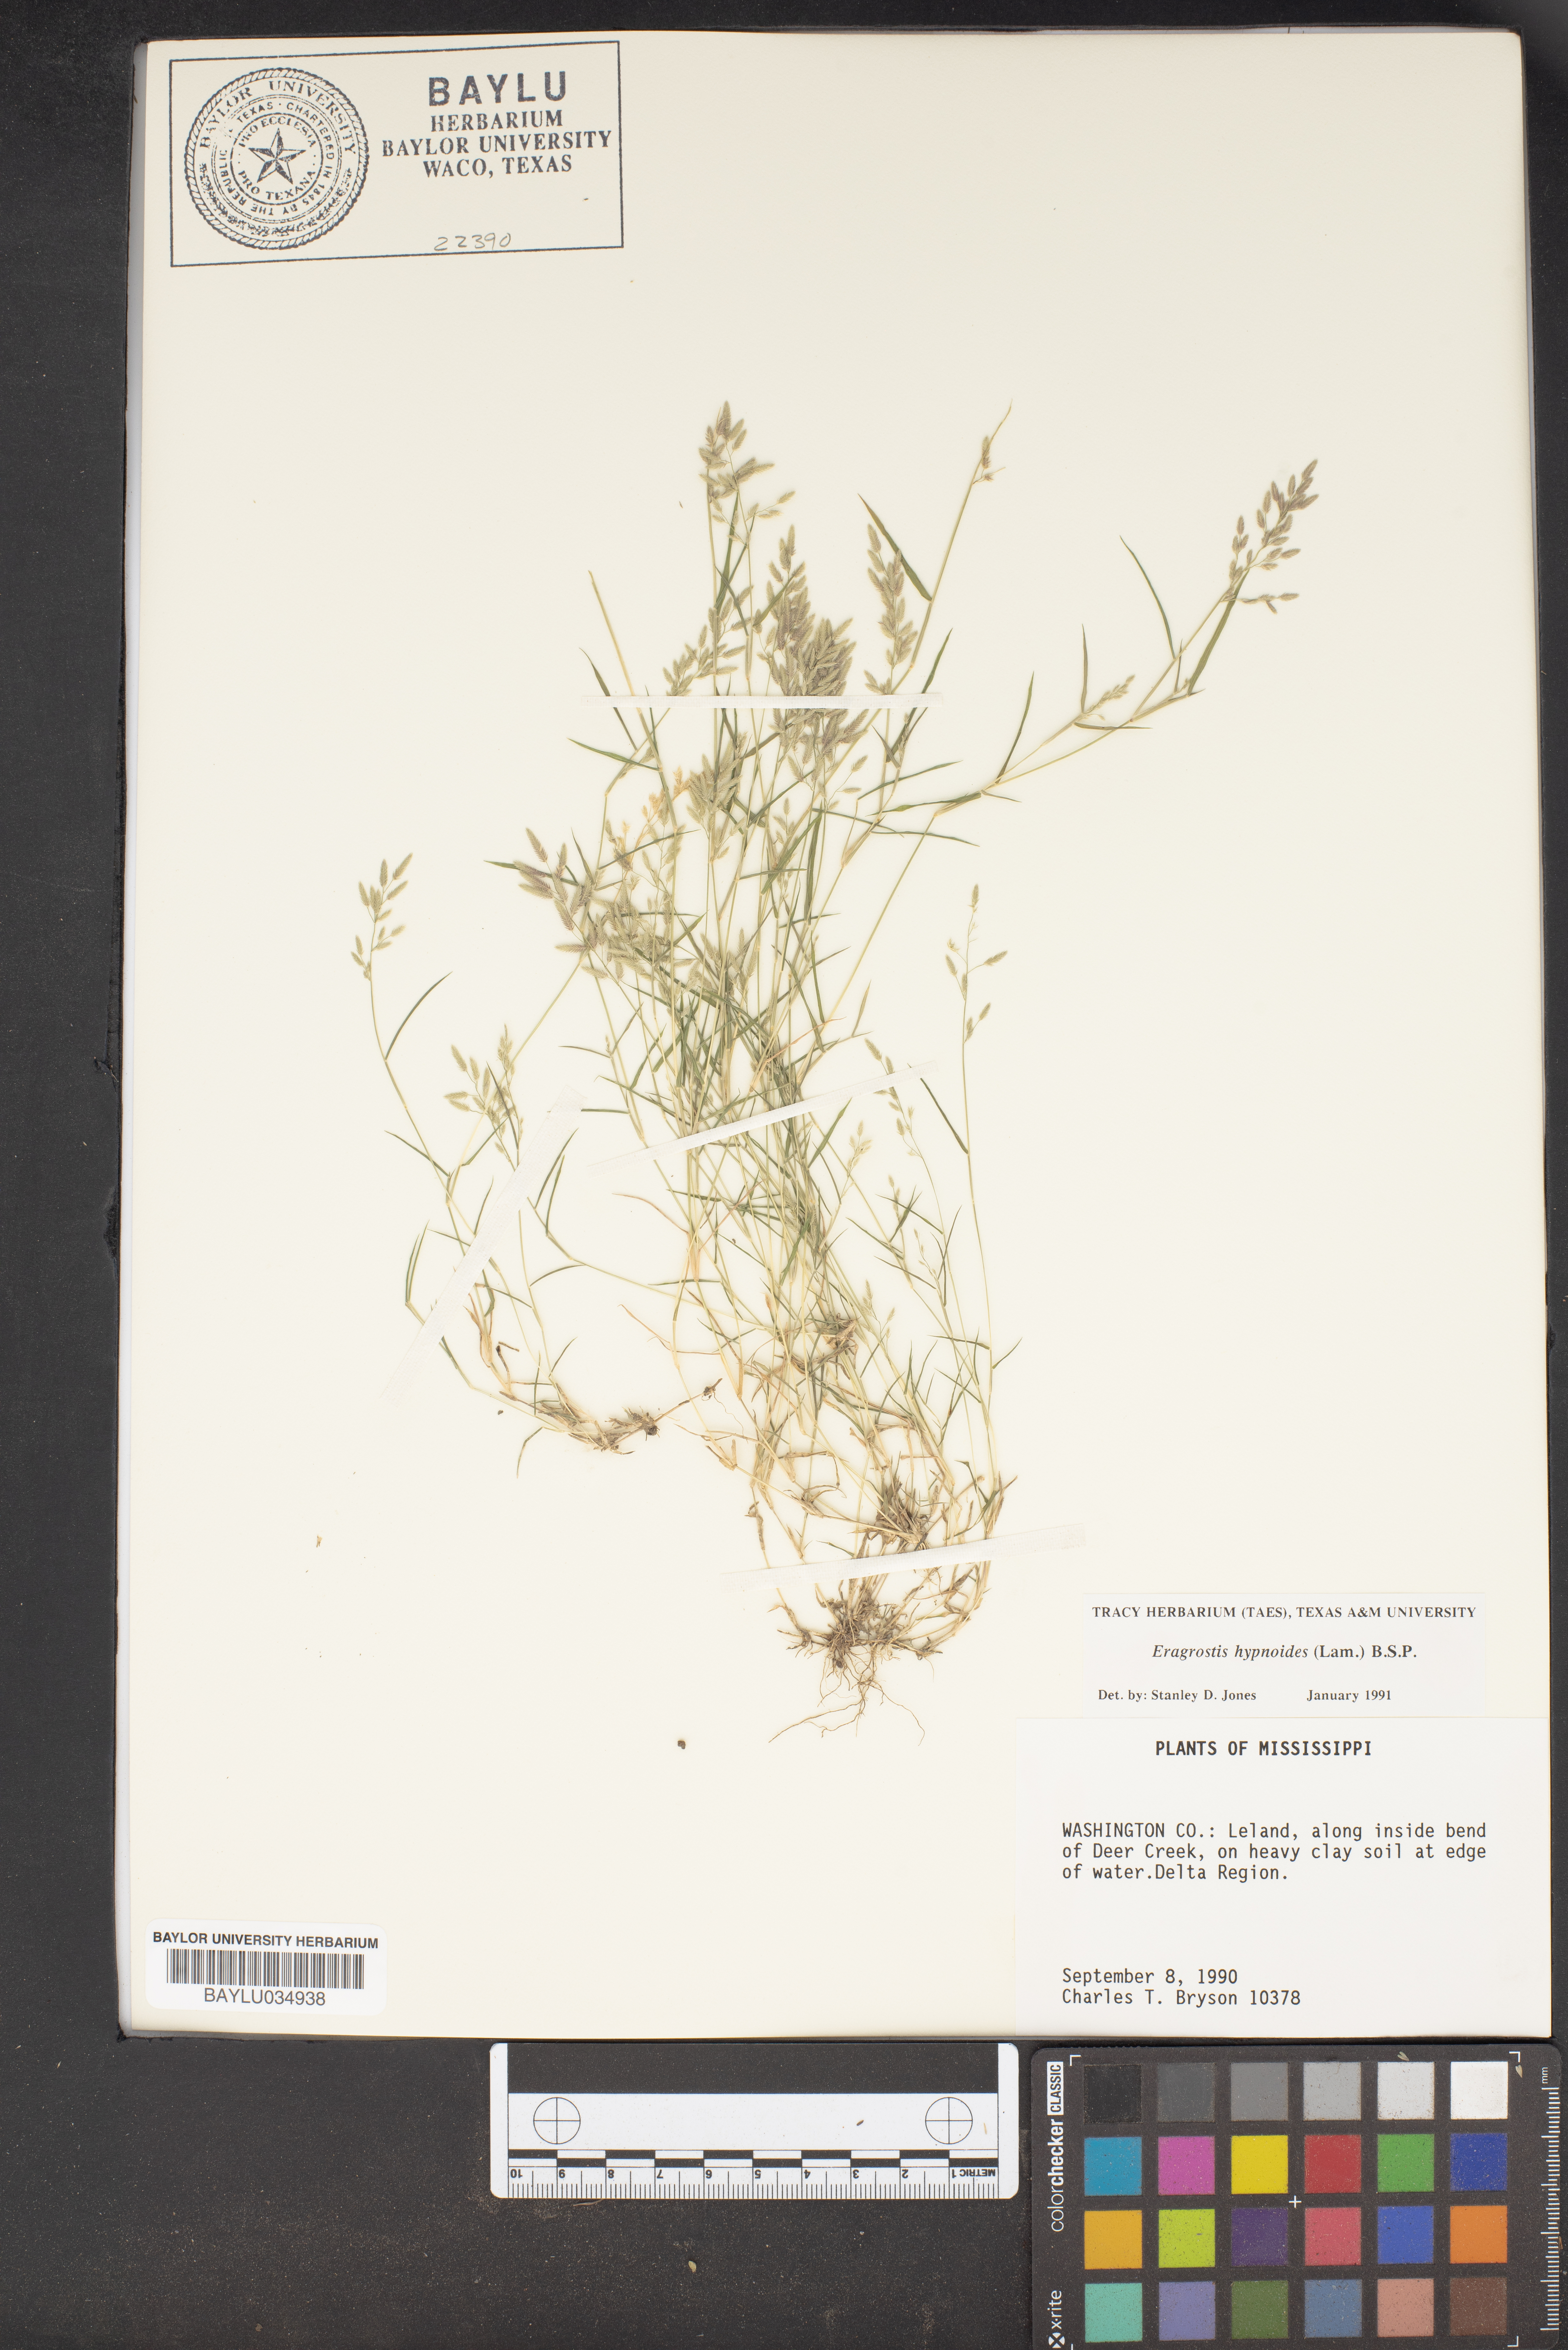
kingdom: Plantae
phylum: Tracheophyta
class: Liliopsida
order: Poales
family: Poaceae
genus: Eragrostis
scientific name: Eragrostis hypnoides
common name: Creeping love grass
